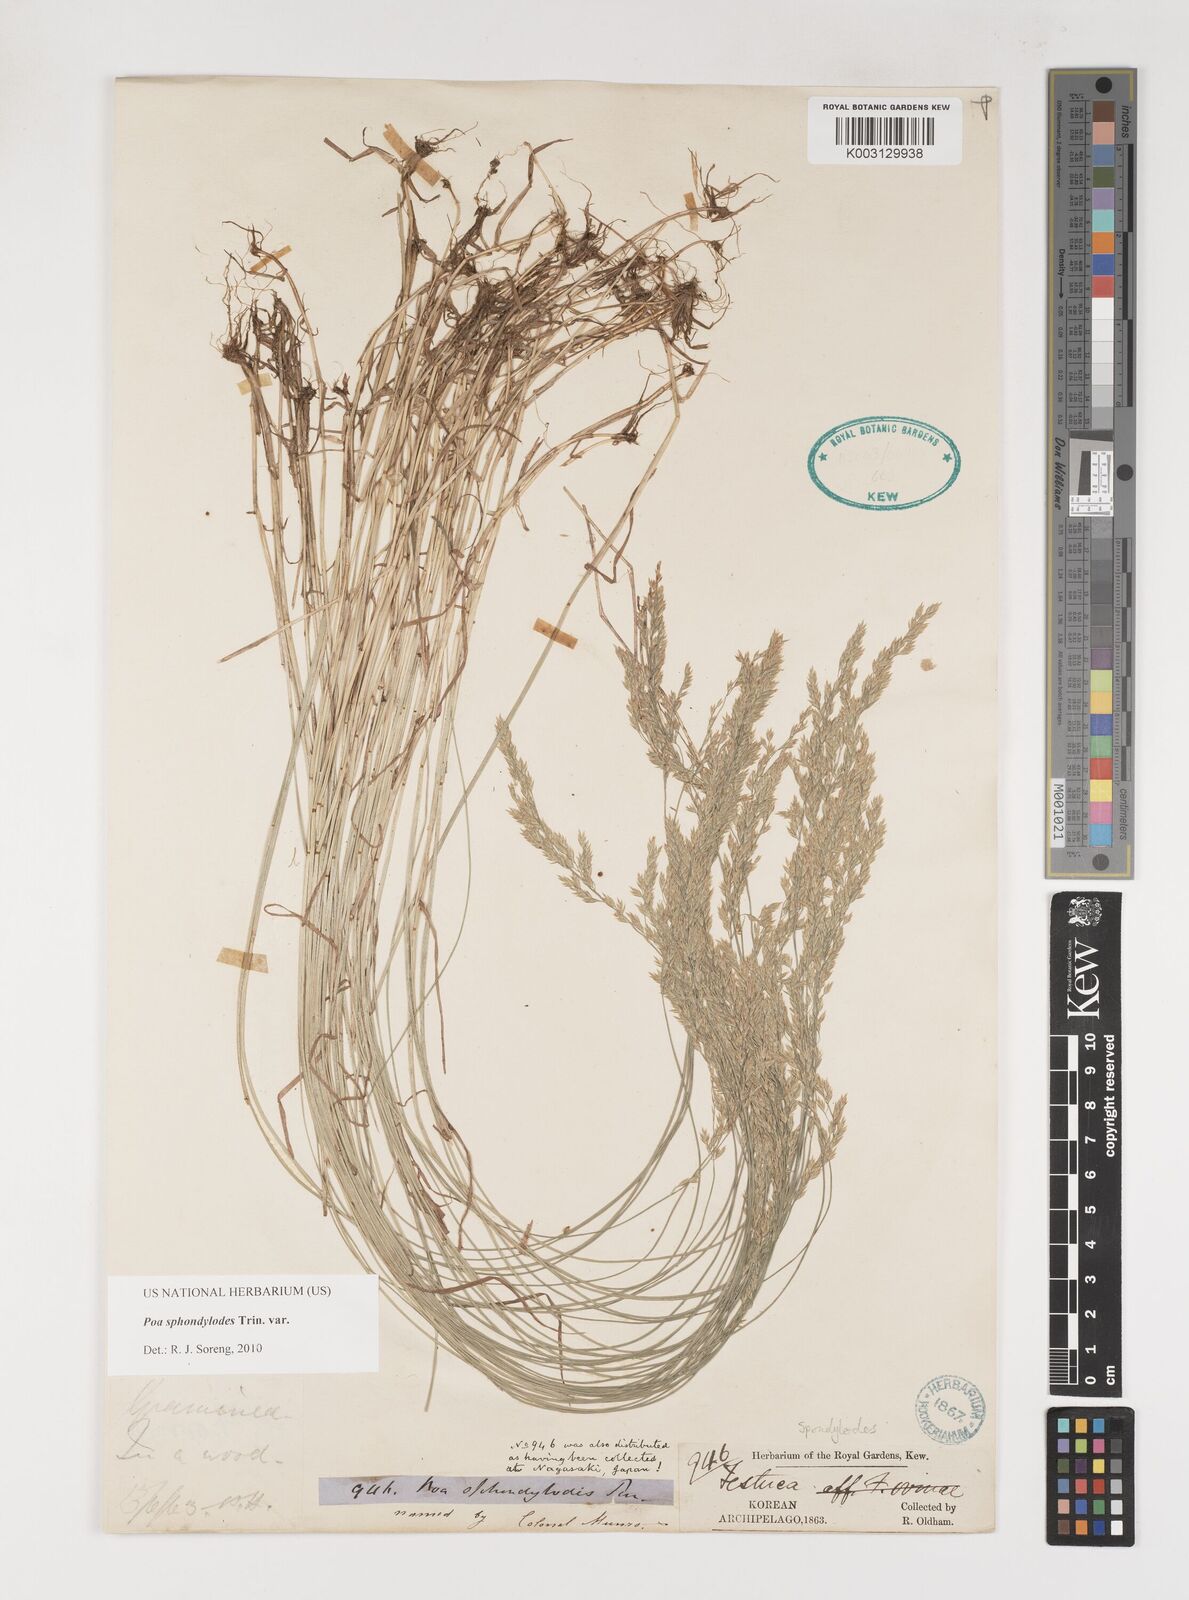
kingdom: Plantae
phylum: Tracheophyta
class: Liliopsida
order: Poales
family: Poaceae
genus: Poa
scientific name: Poa sphondylodes
